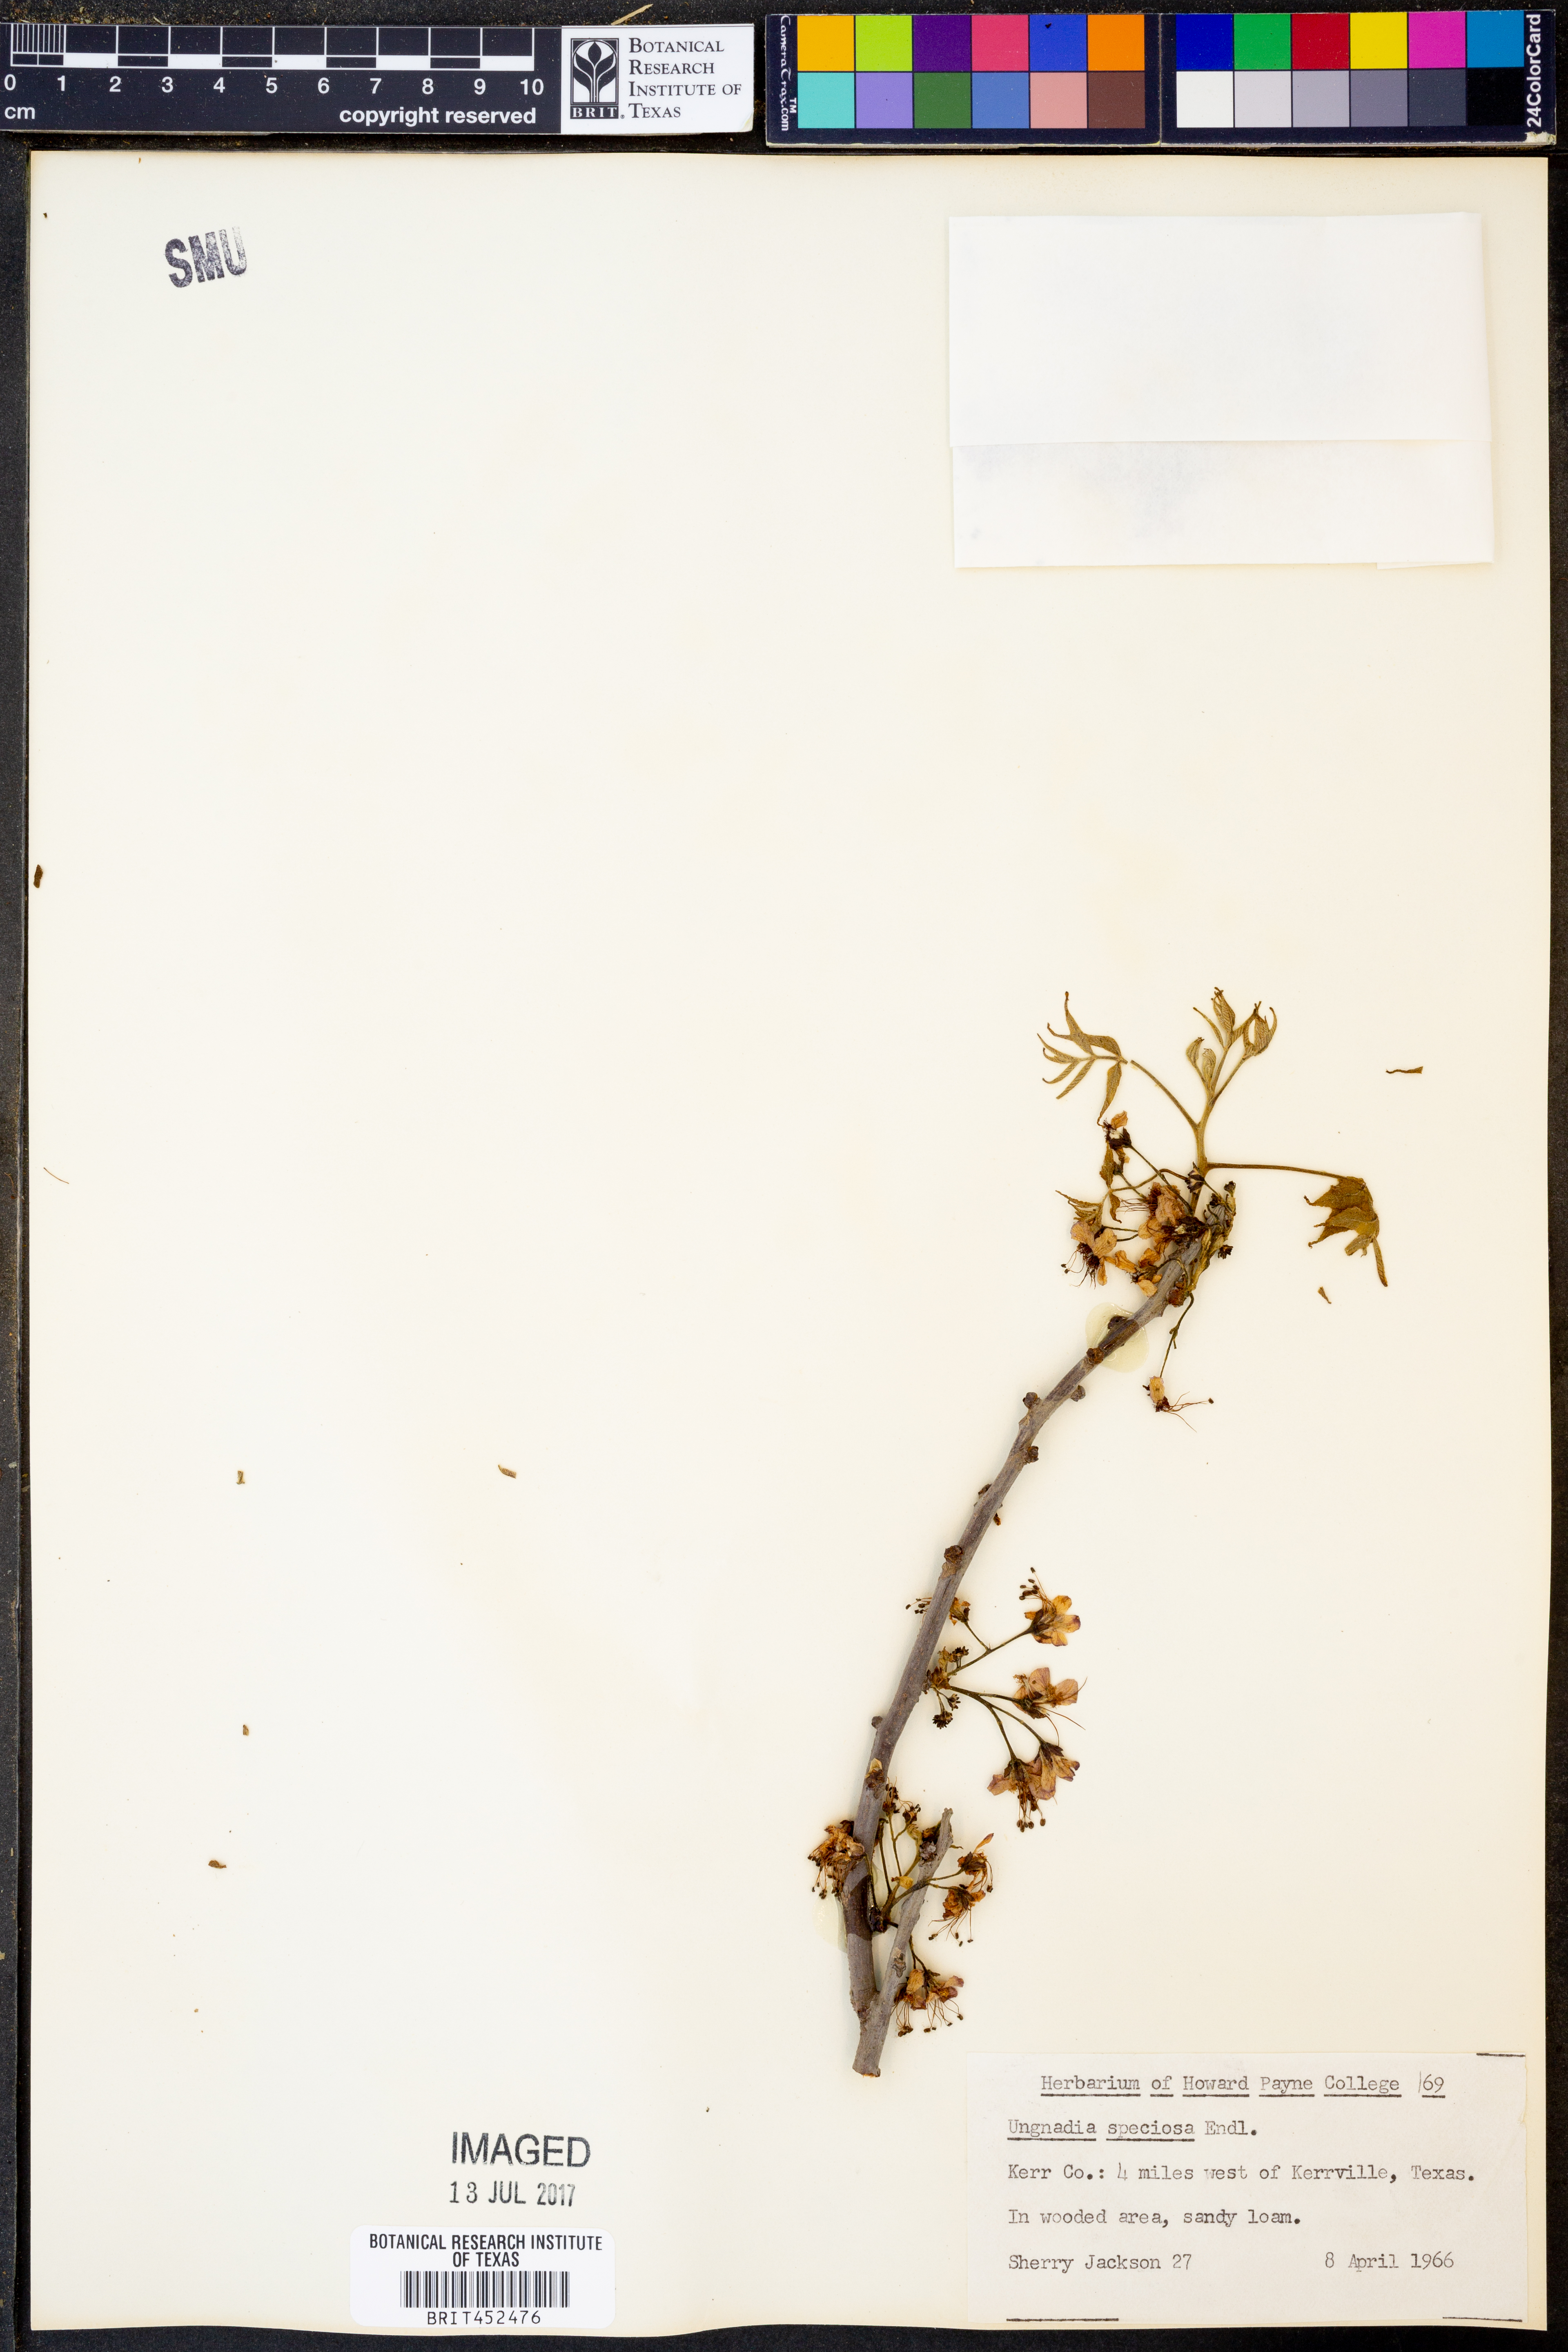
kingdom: Plantae
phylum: Tracheophyta
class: Magnoliopsida
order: Sapindales
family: Sapindaceae
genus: Ungnadia
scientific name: Ungnadia speciosa
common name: Texas-buckeye
